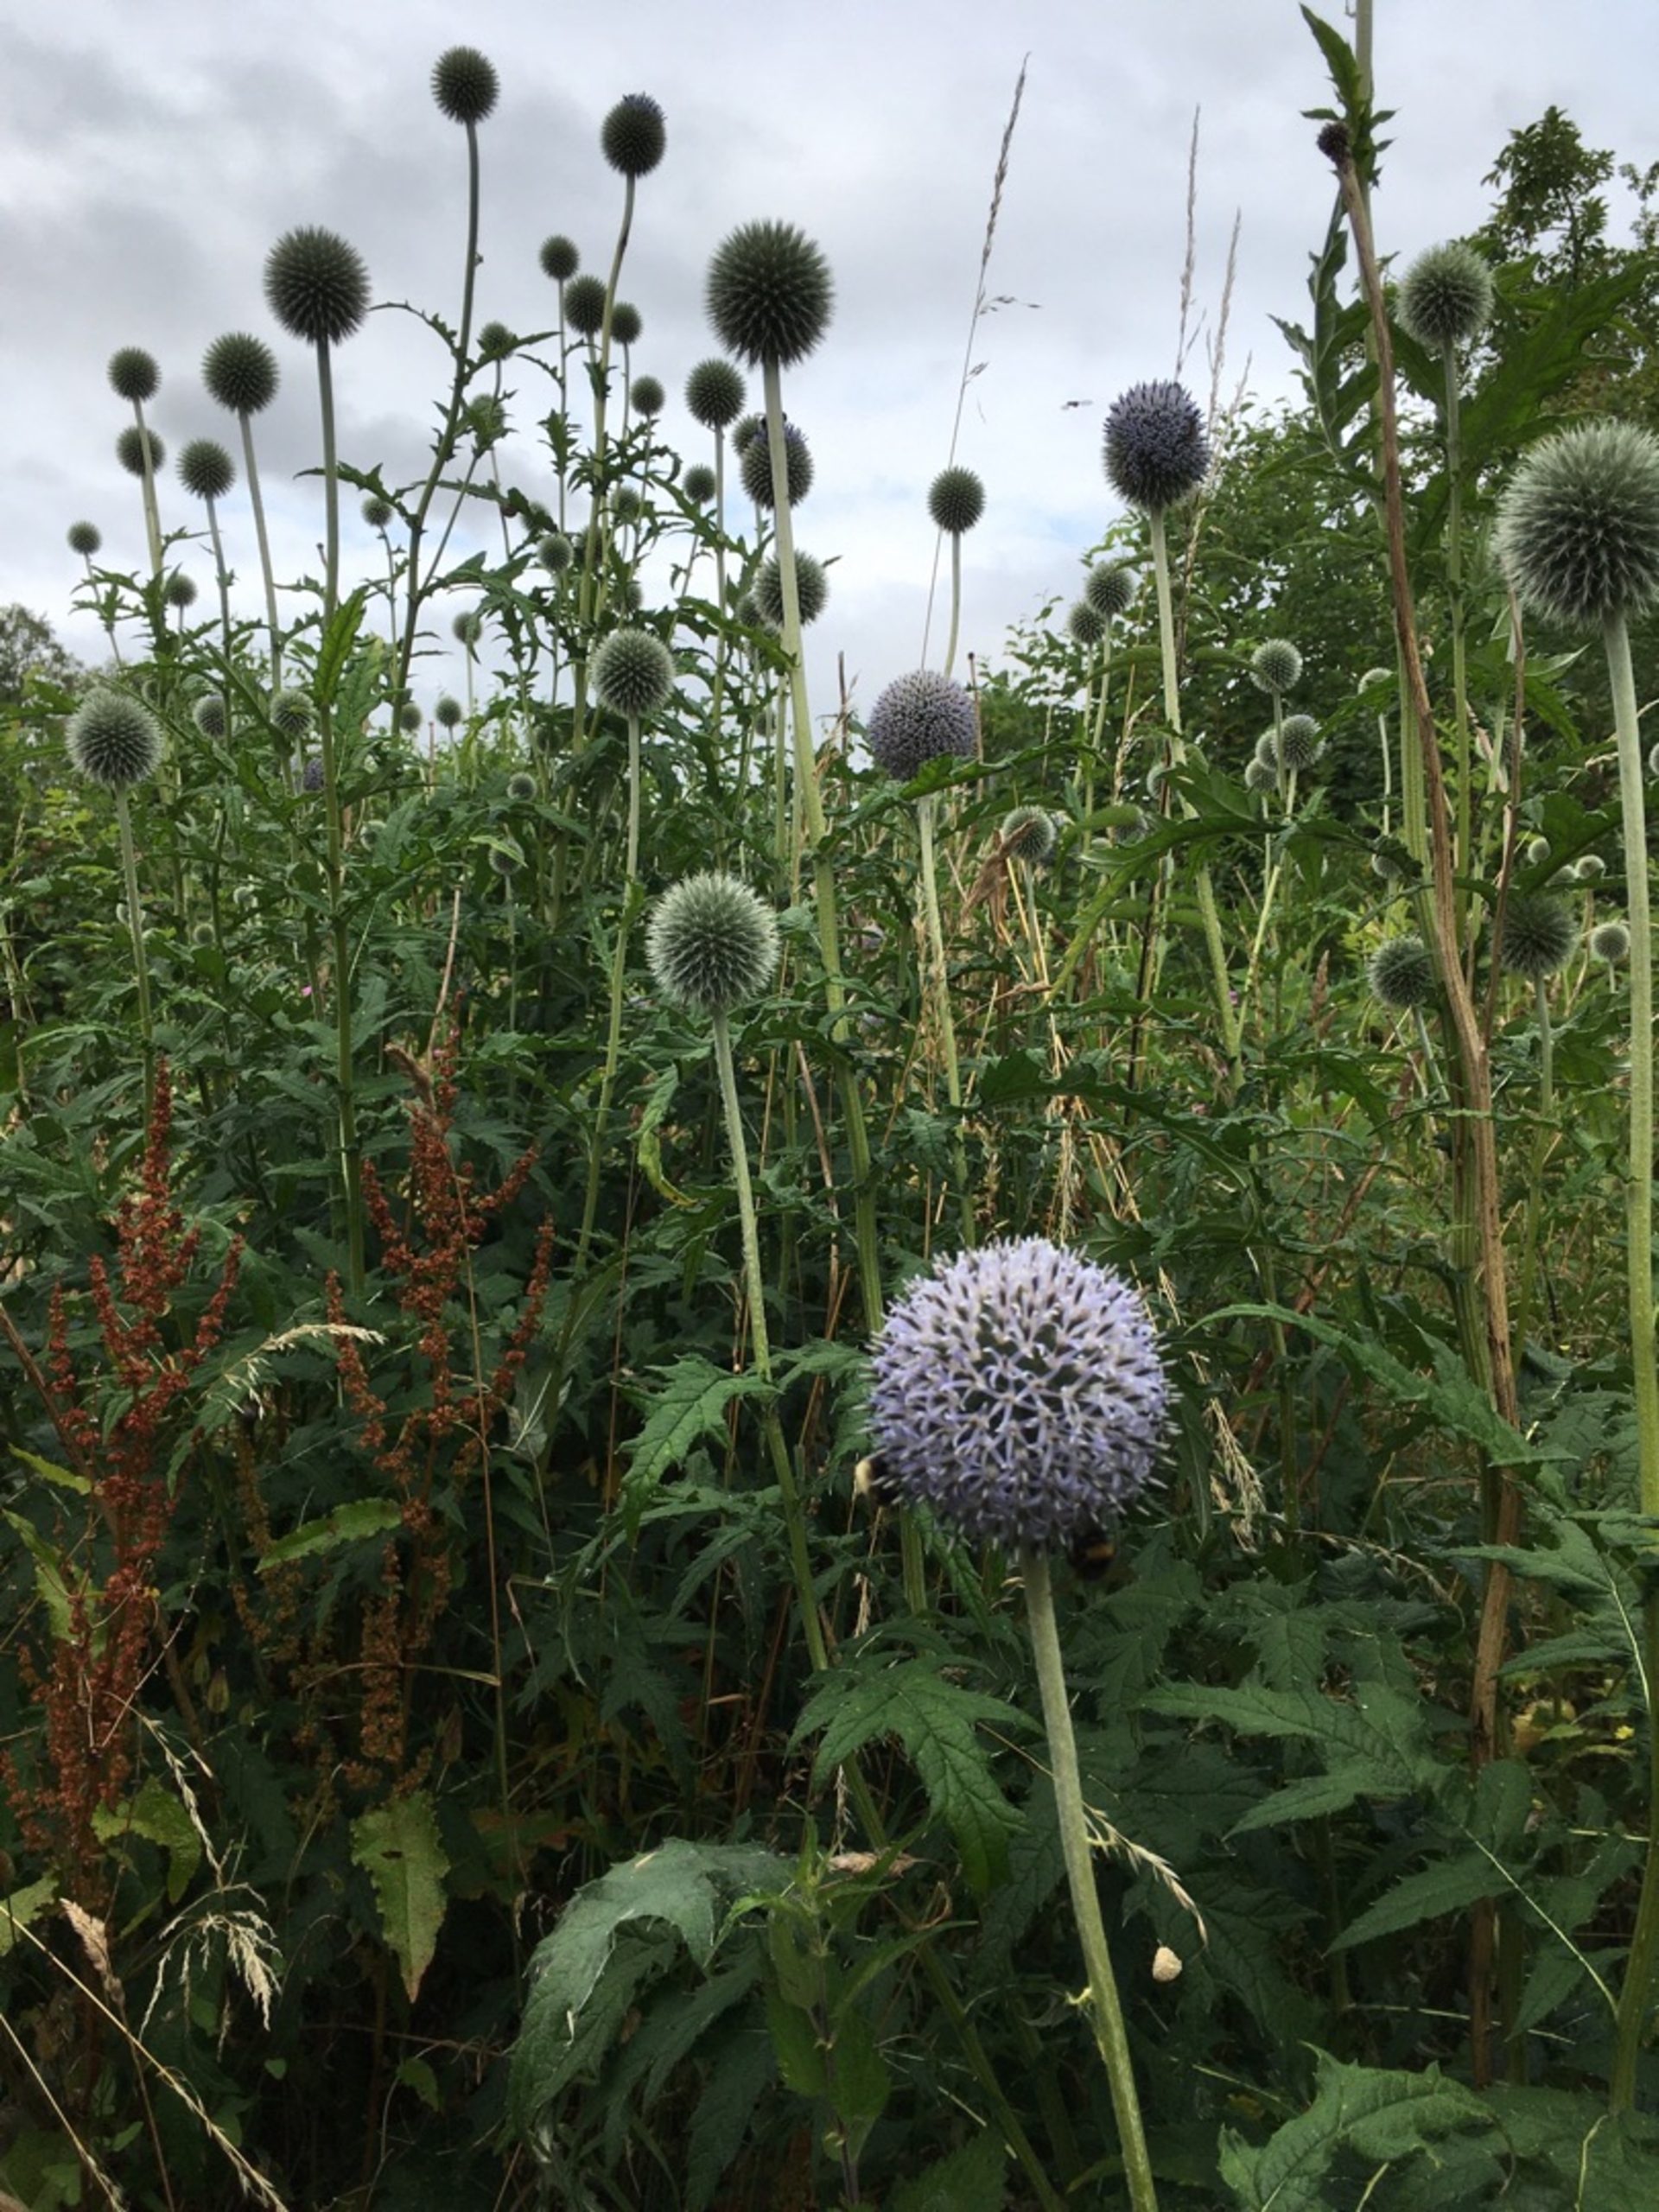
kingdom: Plantae
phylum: Tracheophyta
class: Magnoliopsida
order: Asterales
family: Asteraceae
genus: Echinops
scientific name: Echinops exaltatus
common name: Høj tidselkugle
